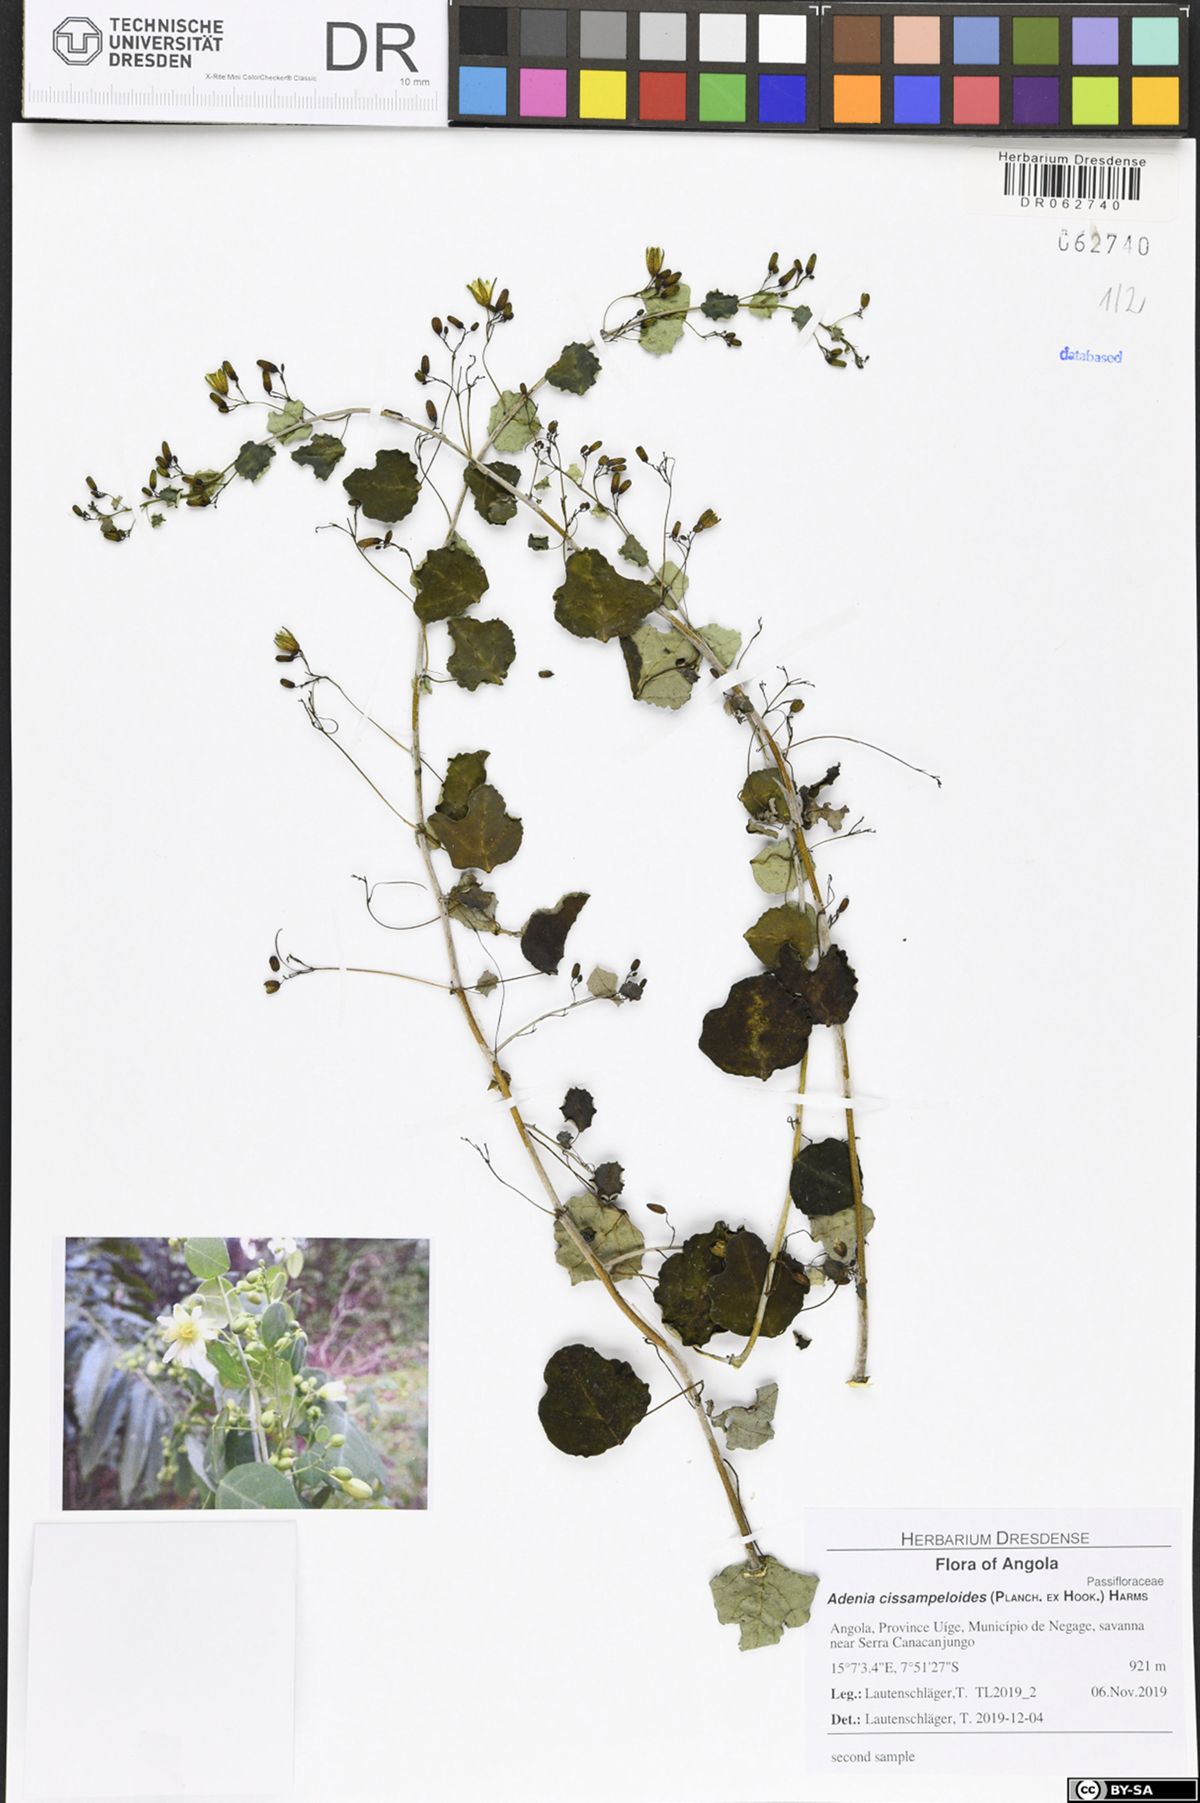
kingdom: Plantae
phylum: Tracheophyta
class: Magnoliopsida
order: Malpighiales
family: Passifloraceae
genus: Adenia
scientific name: Adenia cissampeloides
